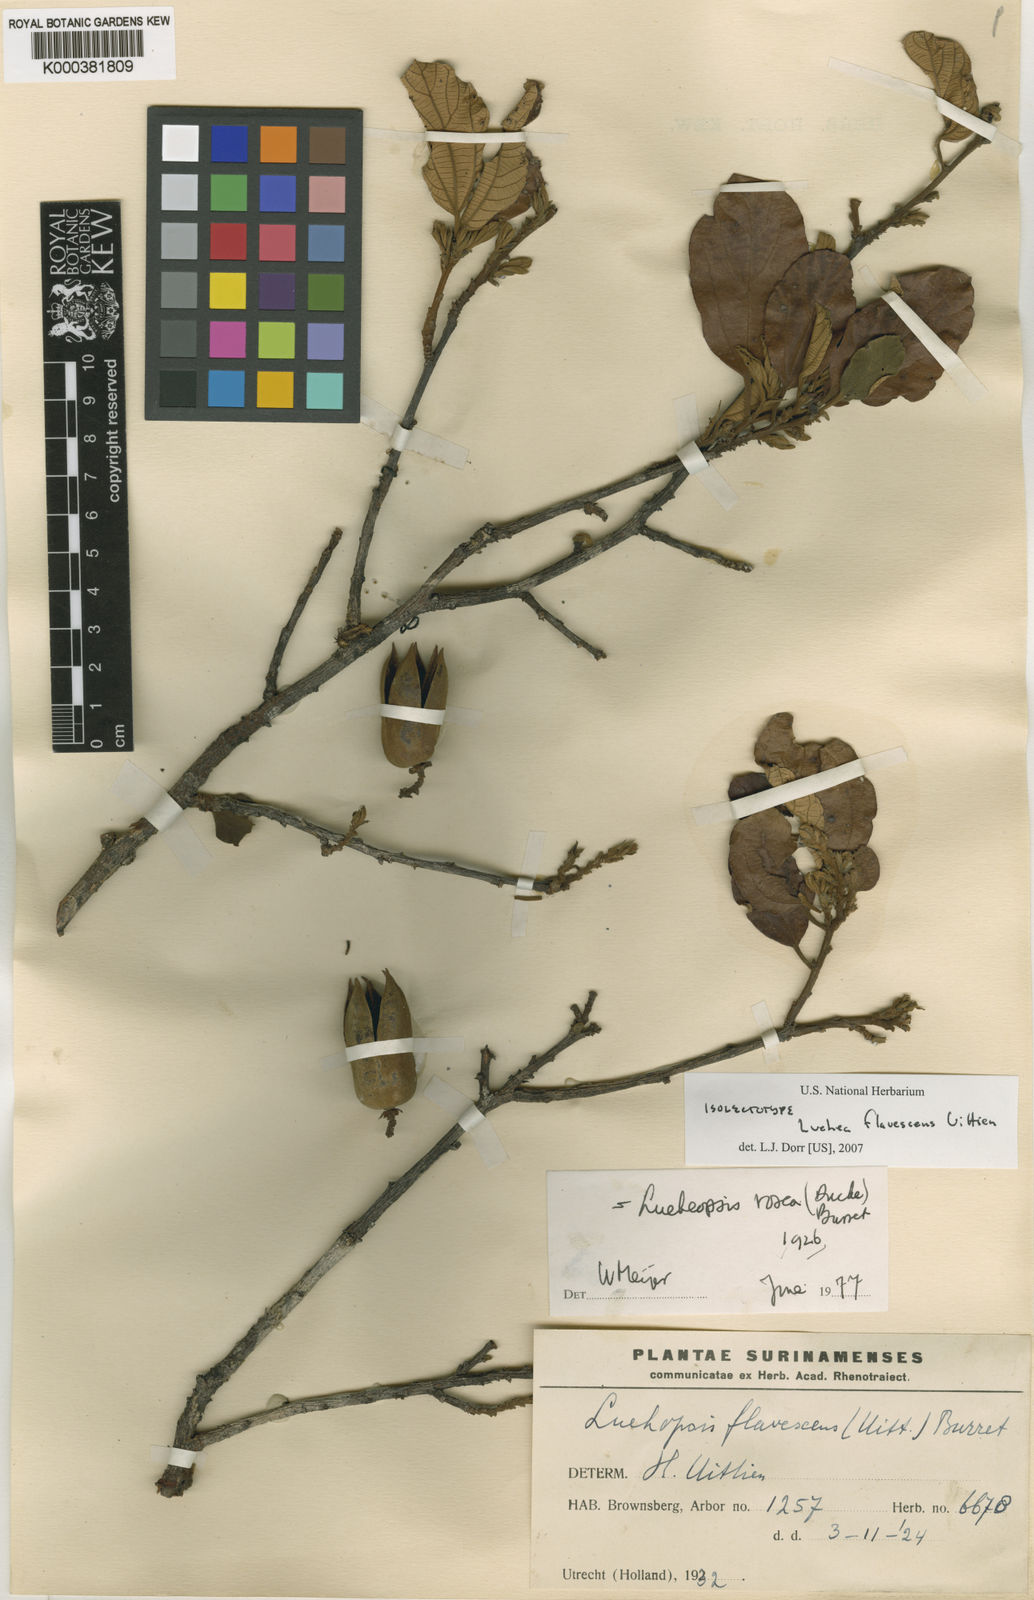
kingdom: Plantae
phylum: Tracheophyta
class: Magnoliopsida
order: Malvales
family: Malvaceae
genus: Lueheopsis
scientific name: Lueheopsis rosea
